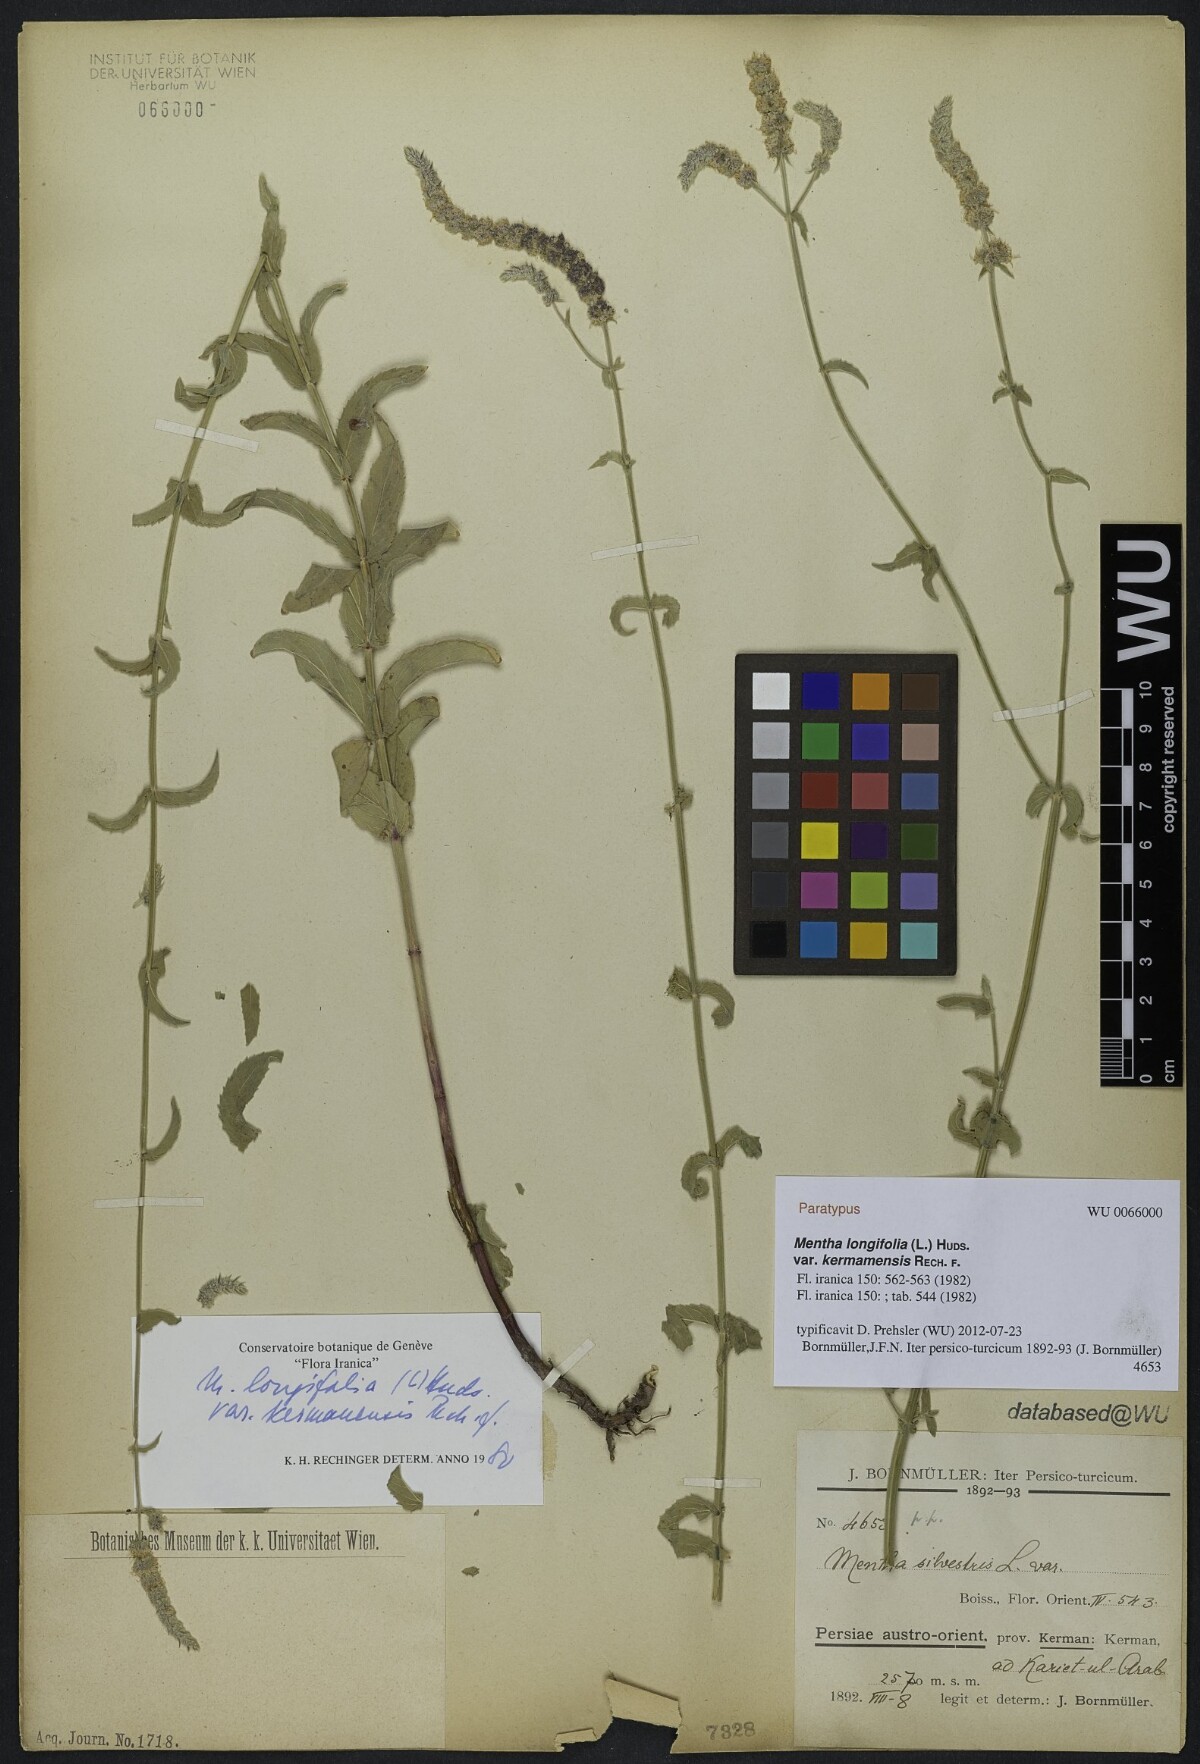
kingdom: Plantae
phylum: Tracheophyta
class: Magnoliopsida
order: Lamiales
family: Lamiaceae
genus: Mentha
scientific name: Mentha longifolia
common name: Horse mint
